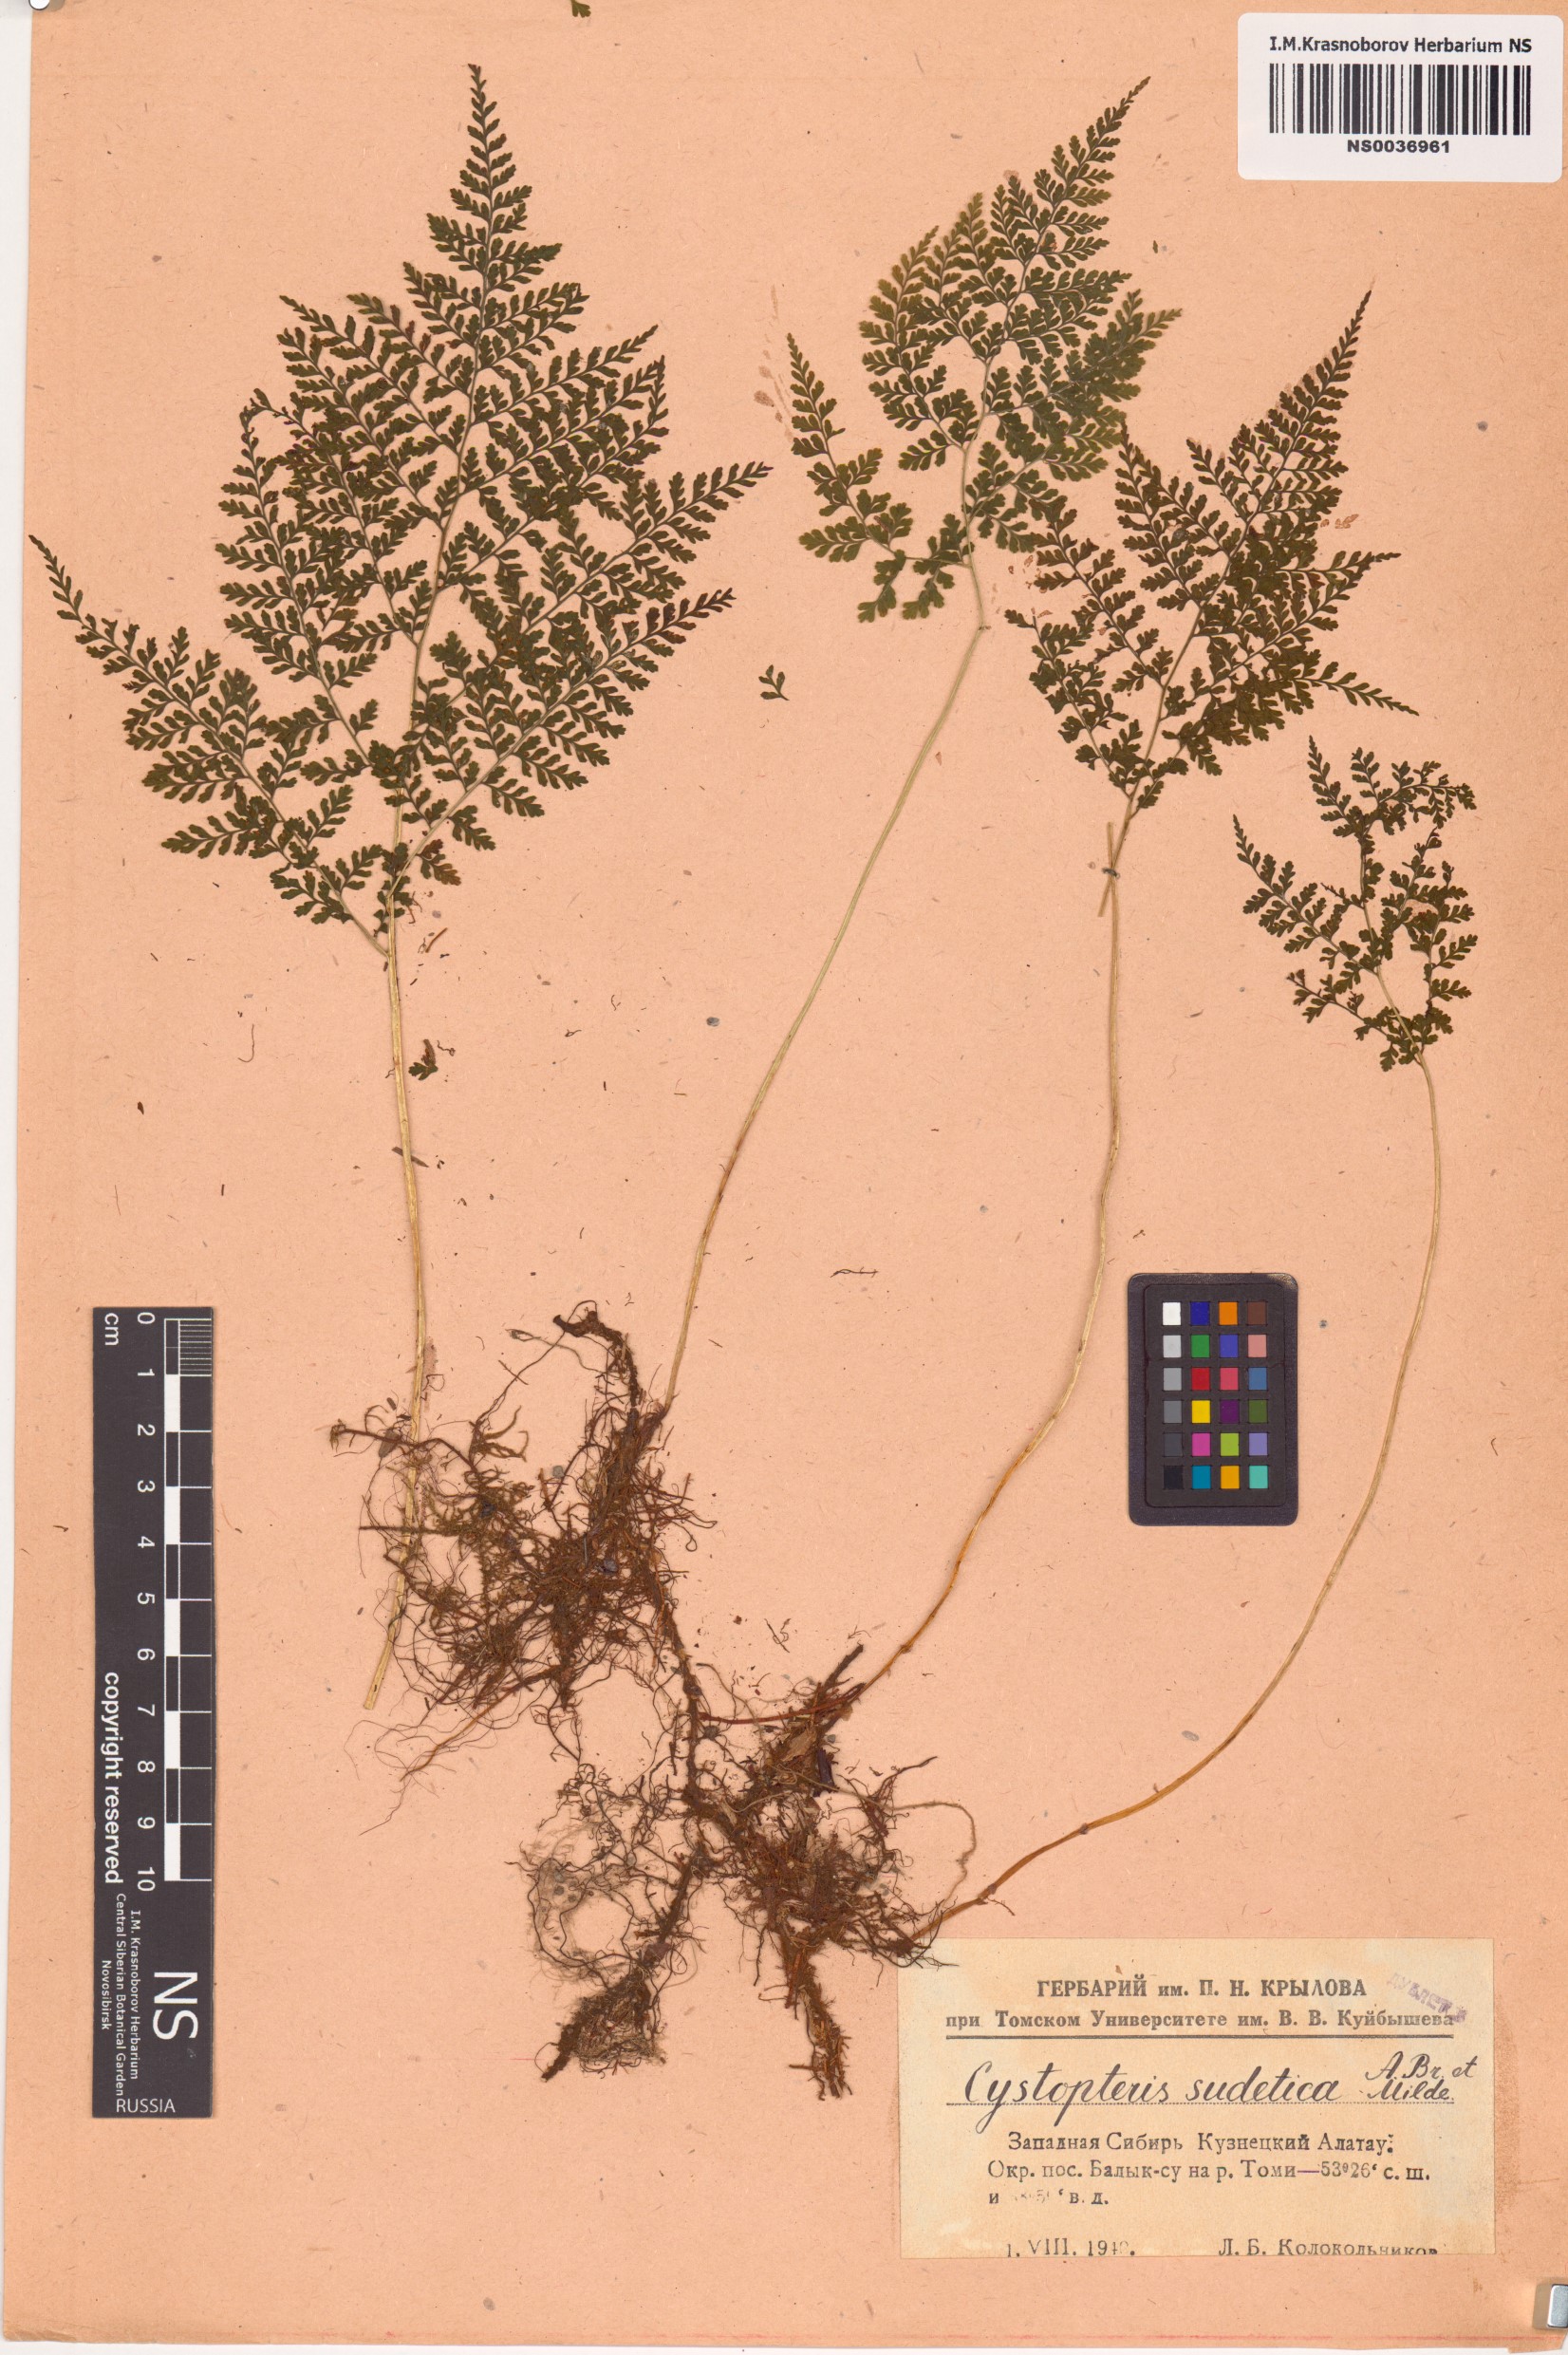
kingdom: Plantae
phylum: Tracheophyta
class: Polypodiopsida
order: Polypodiales
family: Cystopteridaceae
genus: Cystopteris
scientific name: Cystopteris sudetica
